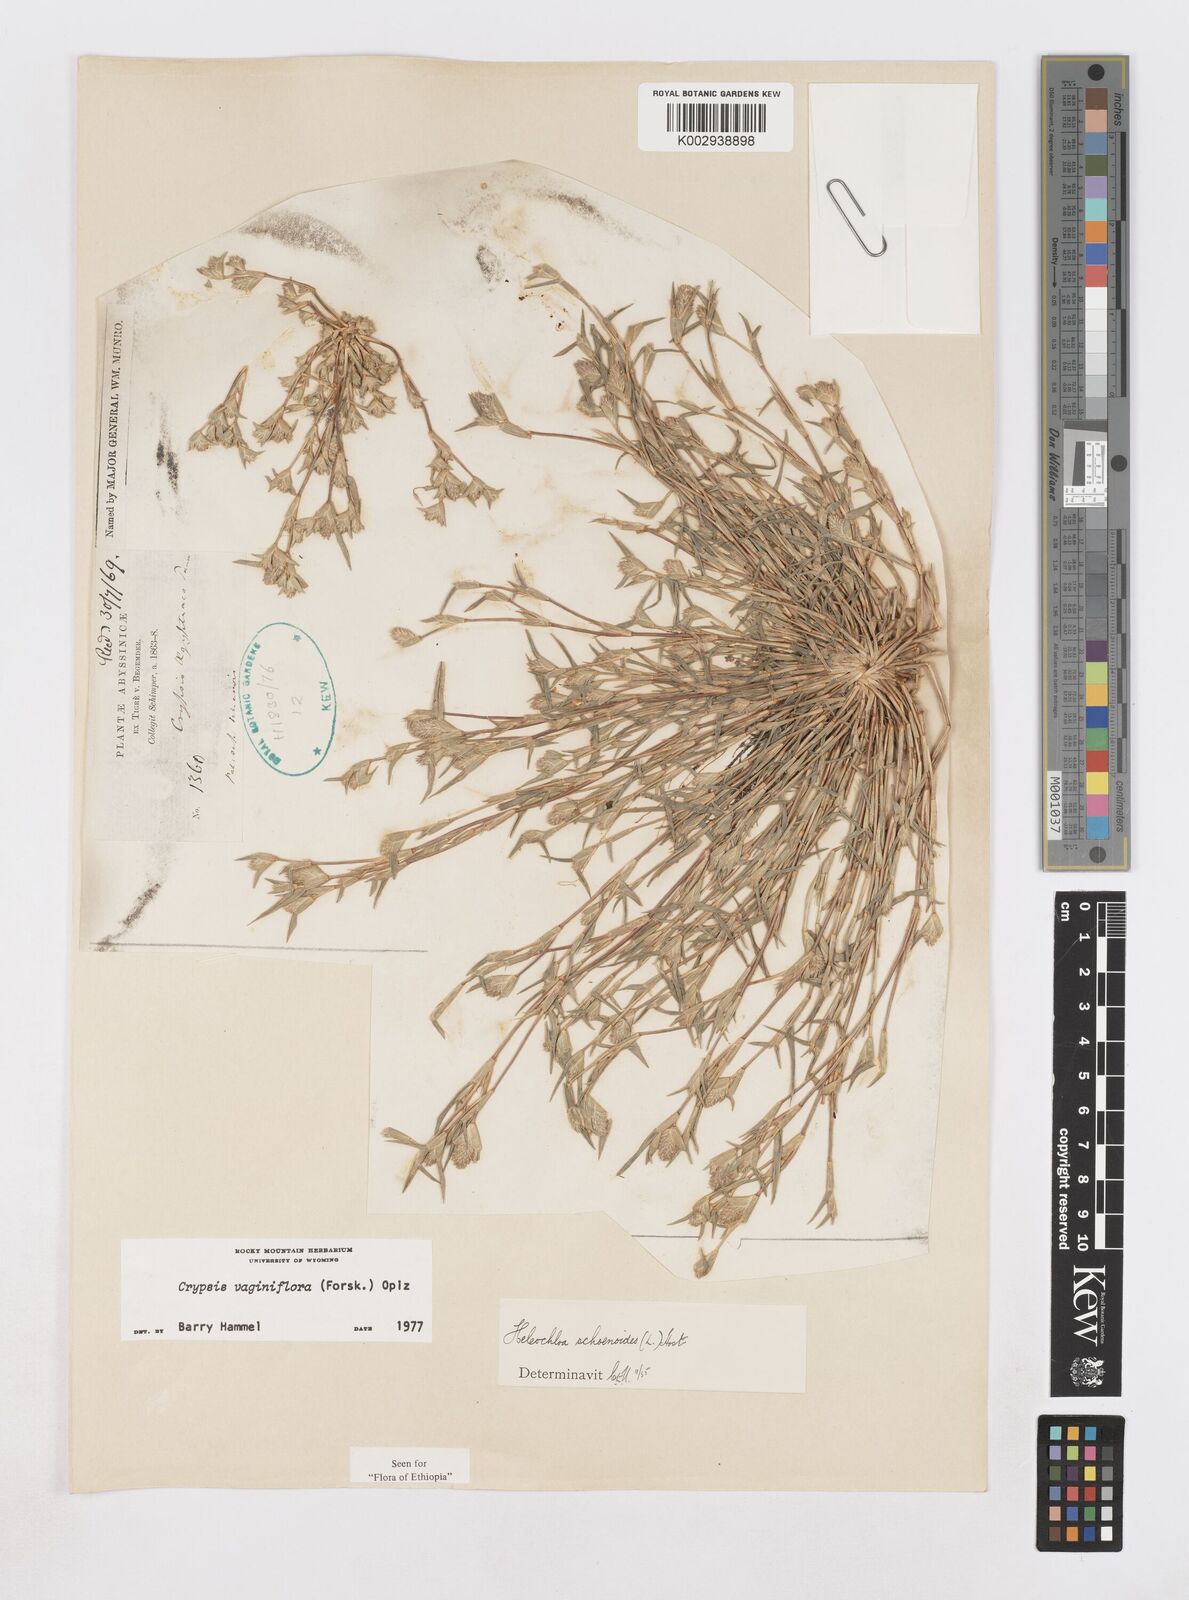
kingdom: Plantae
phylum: Tracheophyta
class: Liliopsida
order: Poales
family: Poaceae
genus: Sporobolus
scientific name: Sporobolus niliacus
